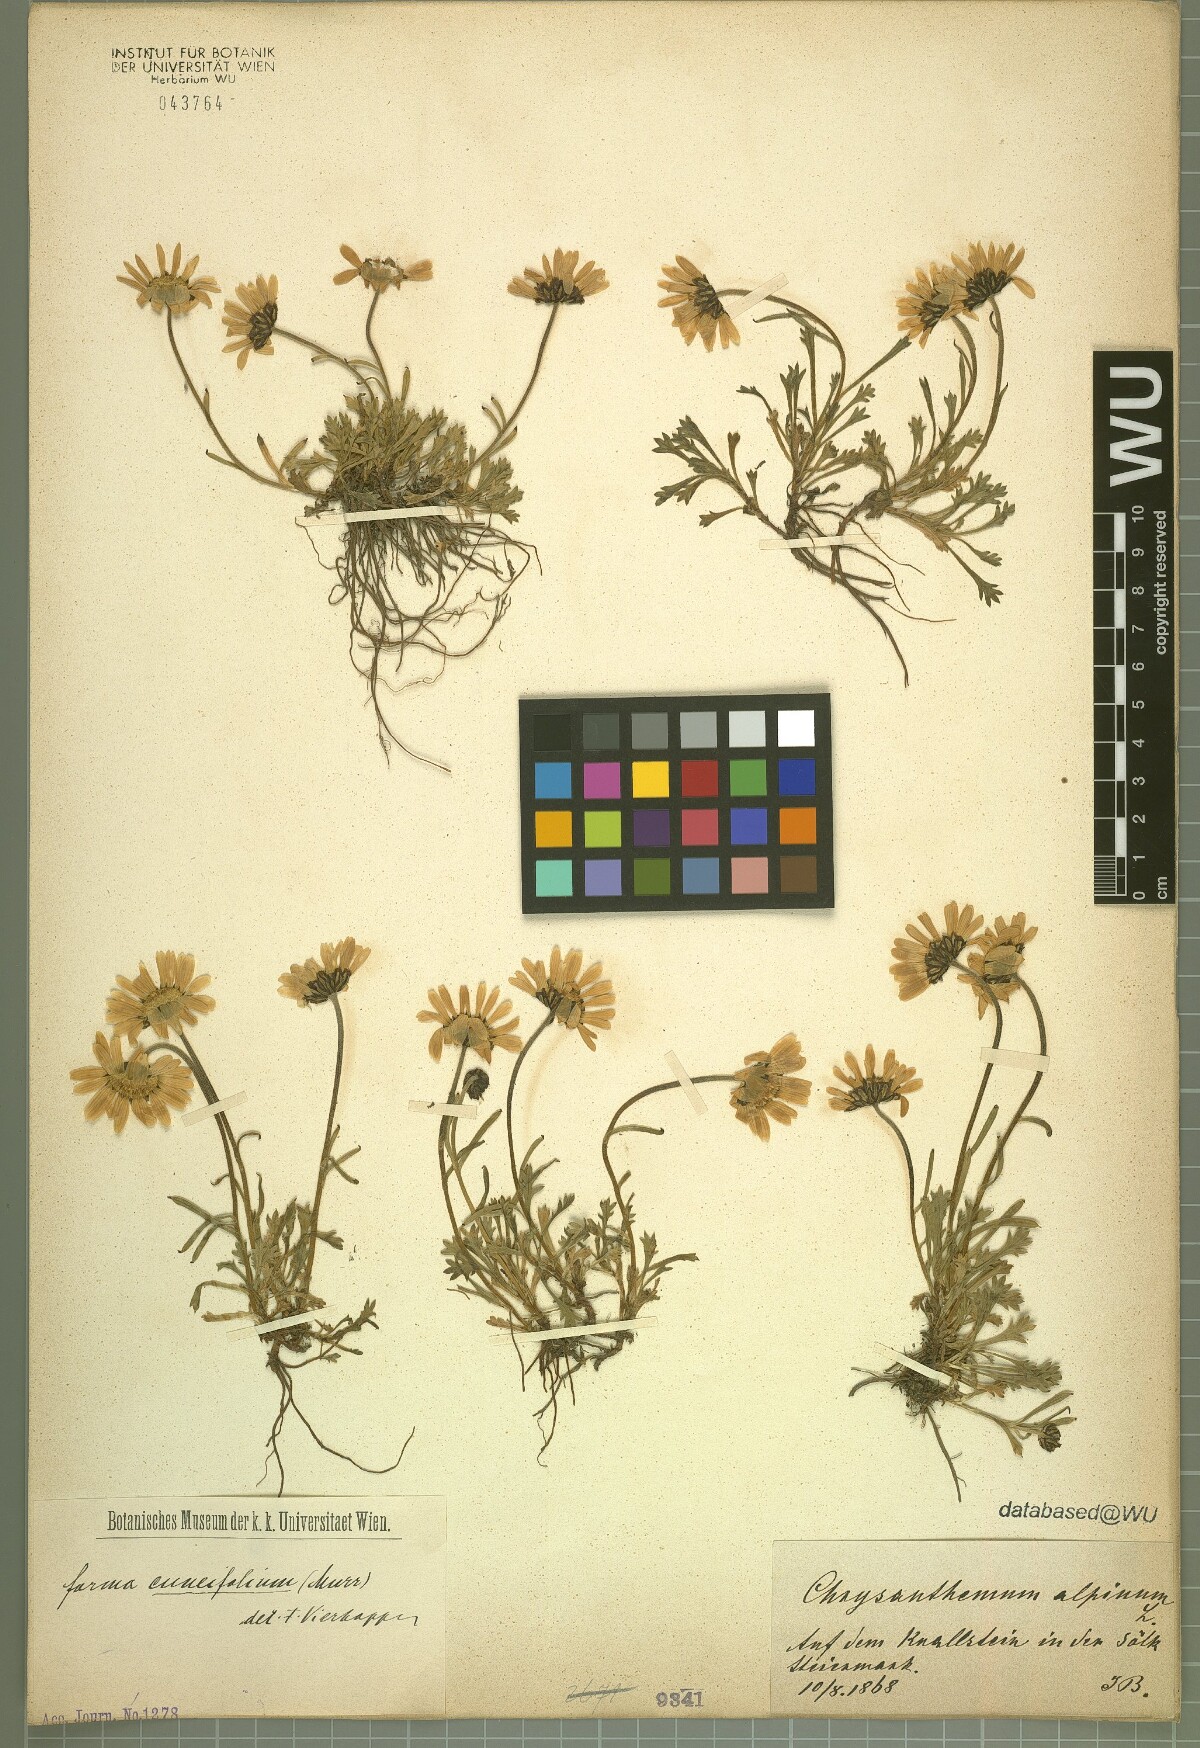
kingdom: Plantae
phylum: Tracheophyta
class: Magnoliopsida
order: Asterales
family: Asteraceae
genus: Leucanthemopsis
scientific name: Leucanthemopsis alpina
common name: Alpine moon daisy
